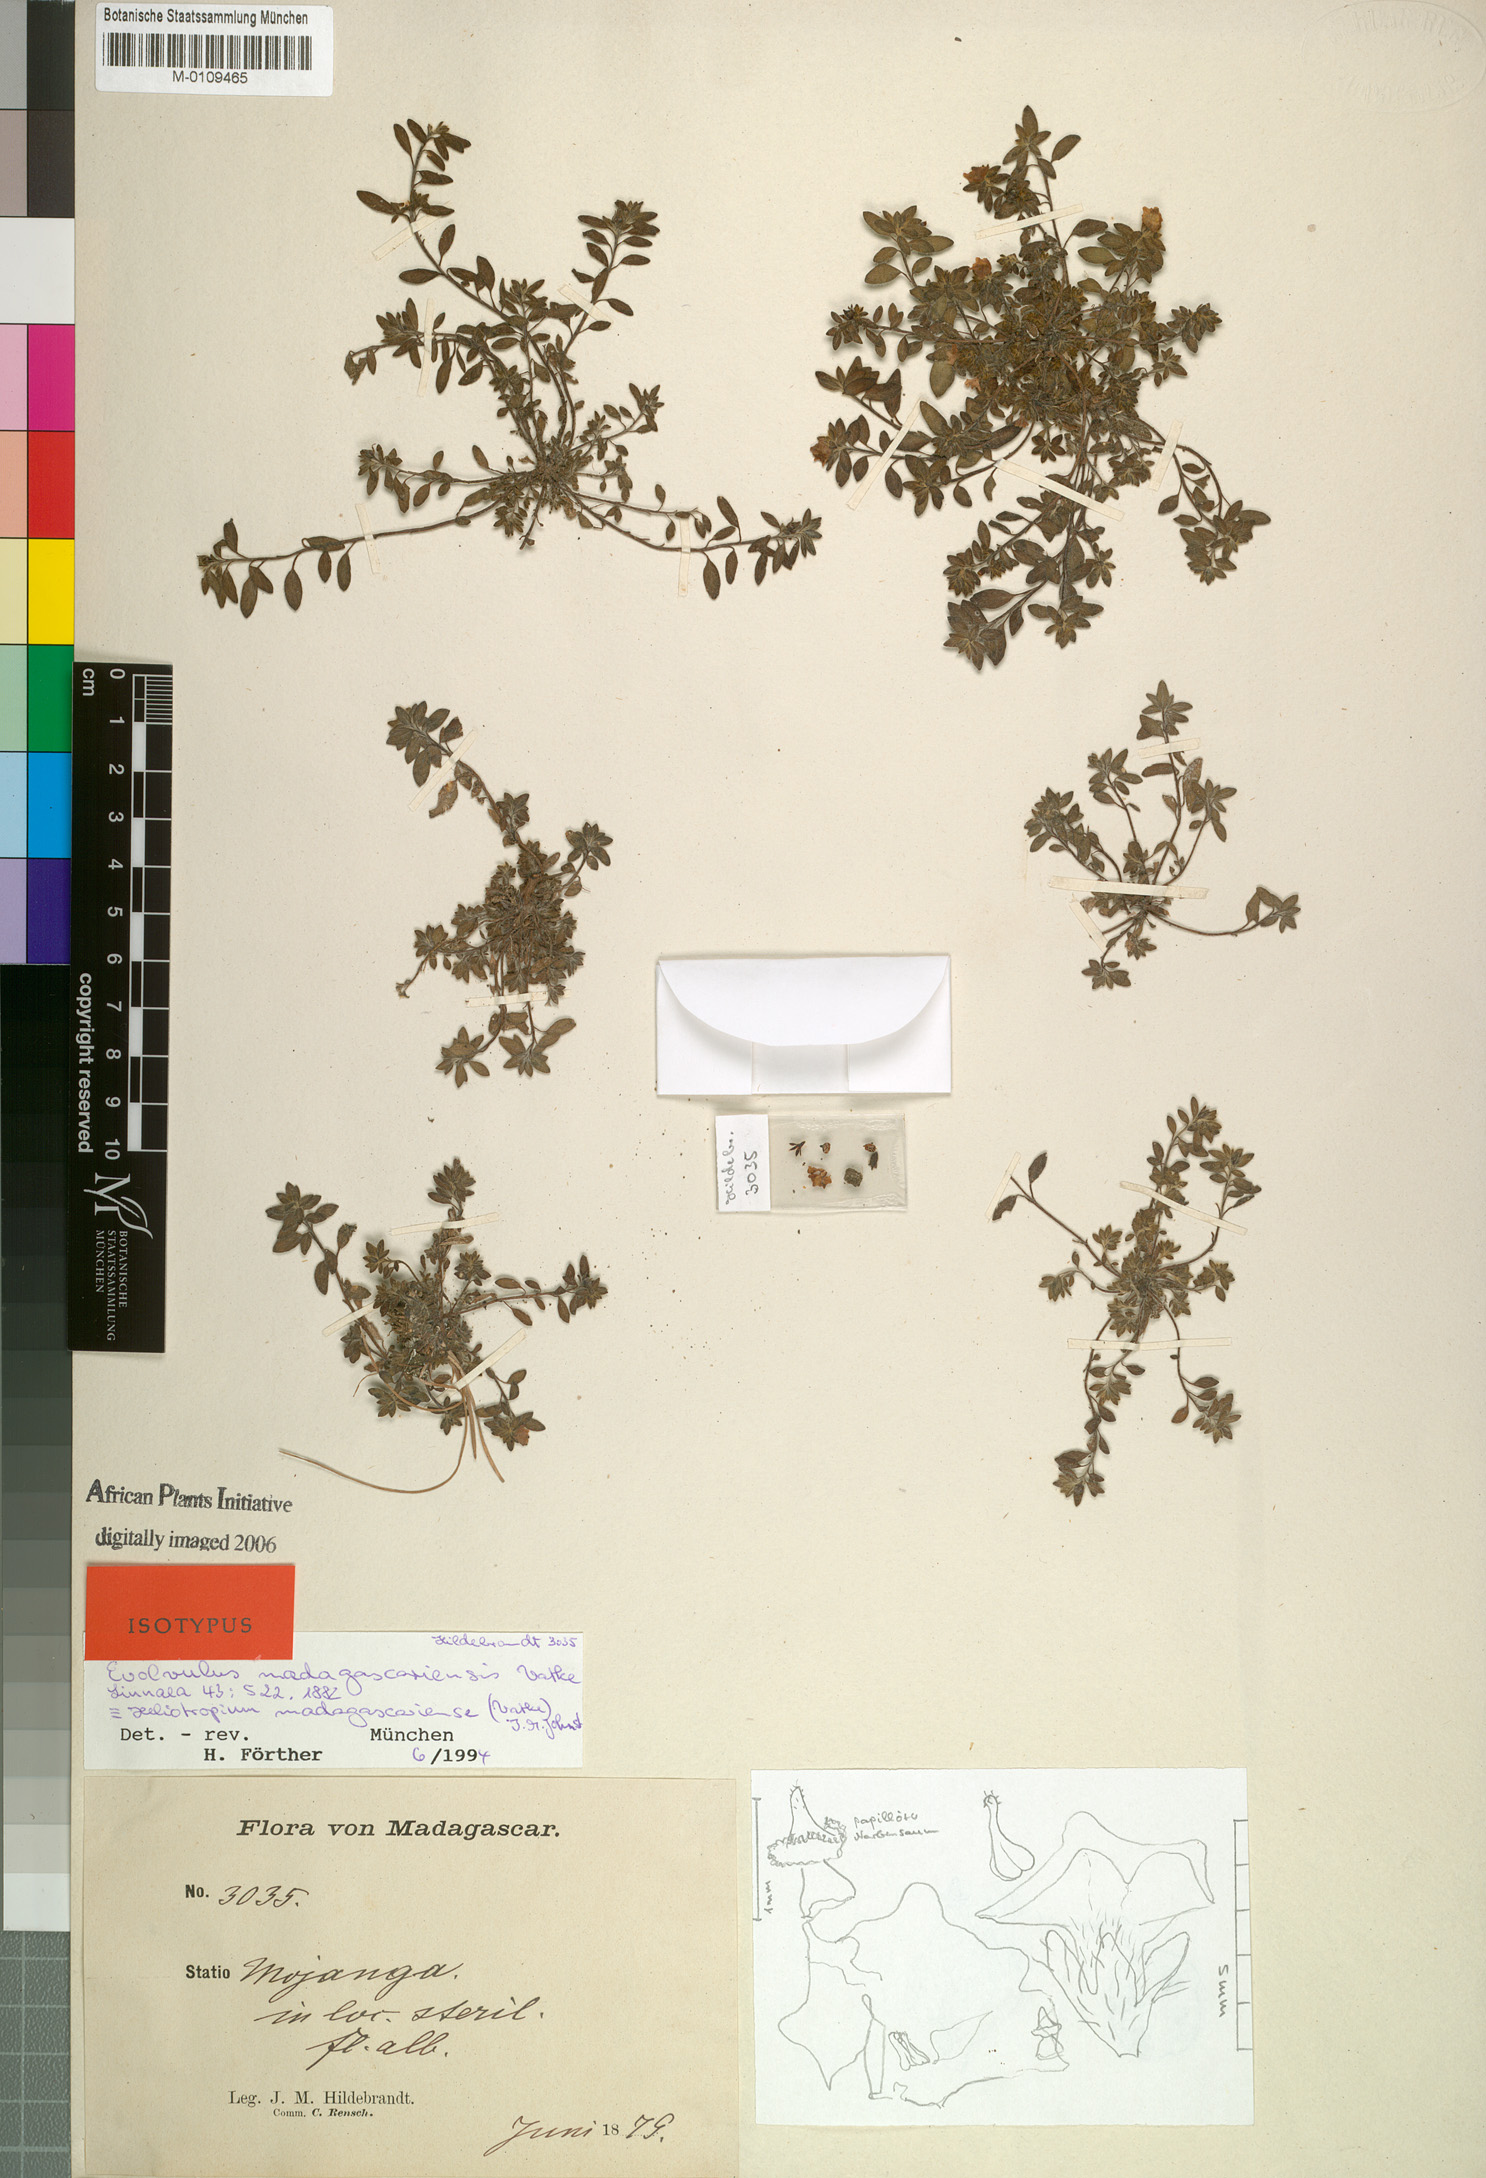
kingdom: Plantae
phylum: Tracheophyta
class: Magnoliopsida
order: Boraginales
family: Heliotropiaceae
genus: Euploca
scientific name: Euploca madagascariensis
